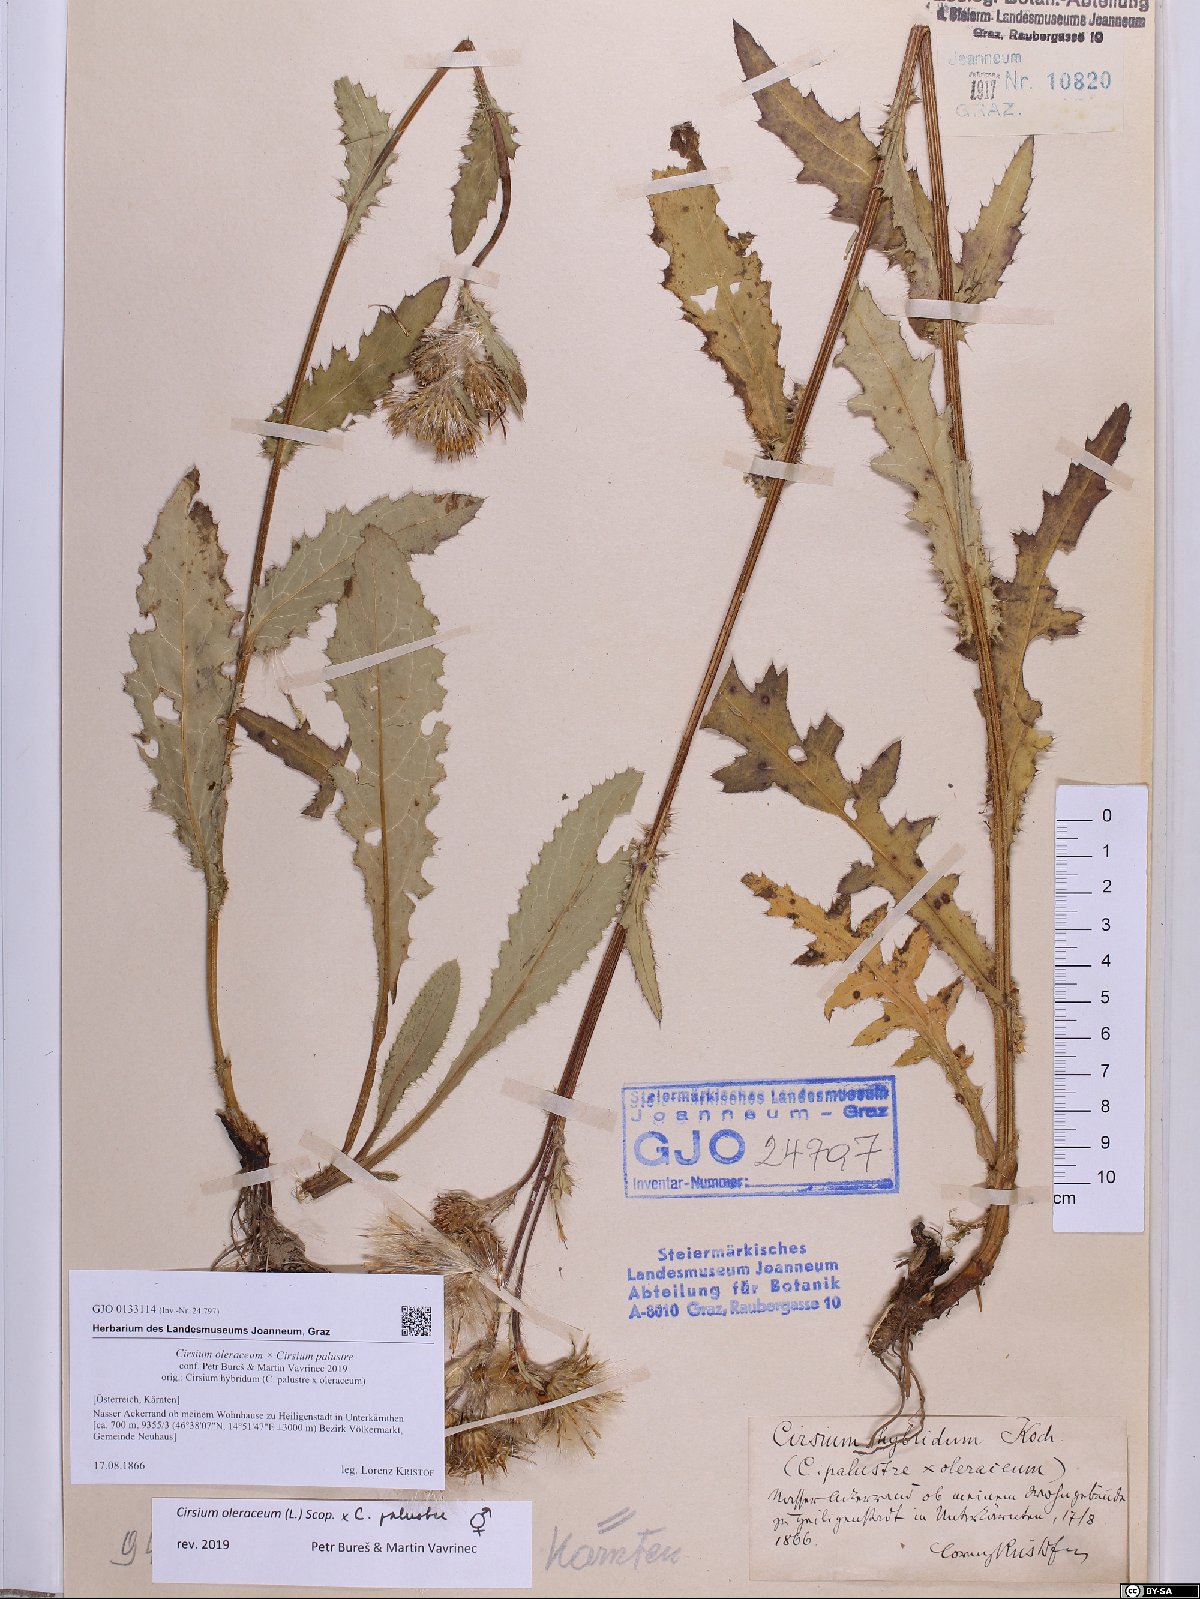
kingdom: Plantae
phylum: Tracheophyta
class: Magnoliopsida
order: Asterales
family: Asteraceae
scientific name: Asteraceae
